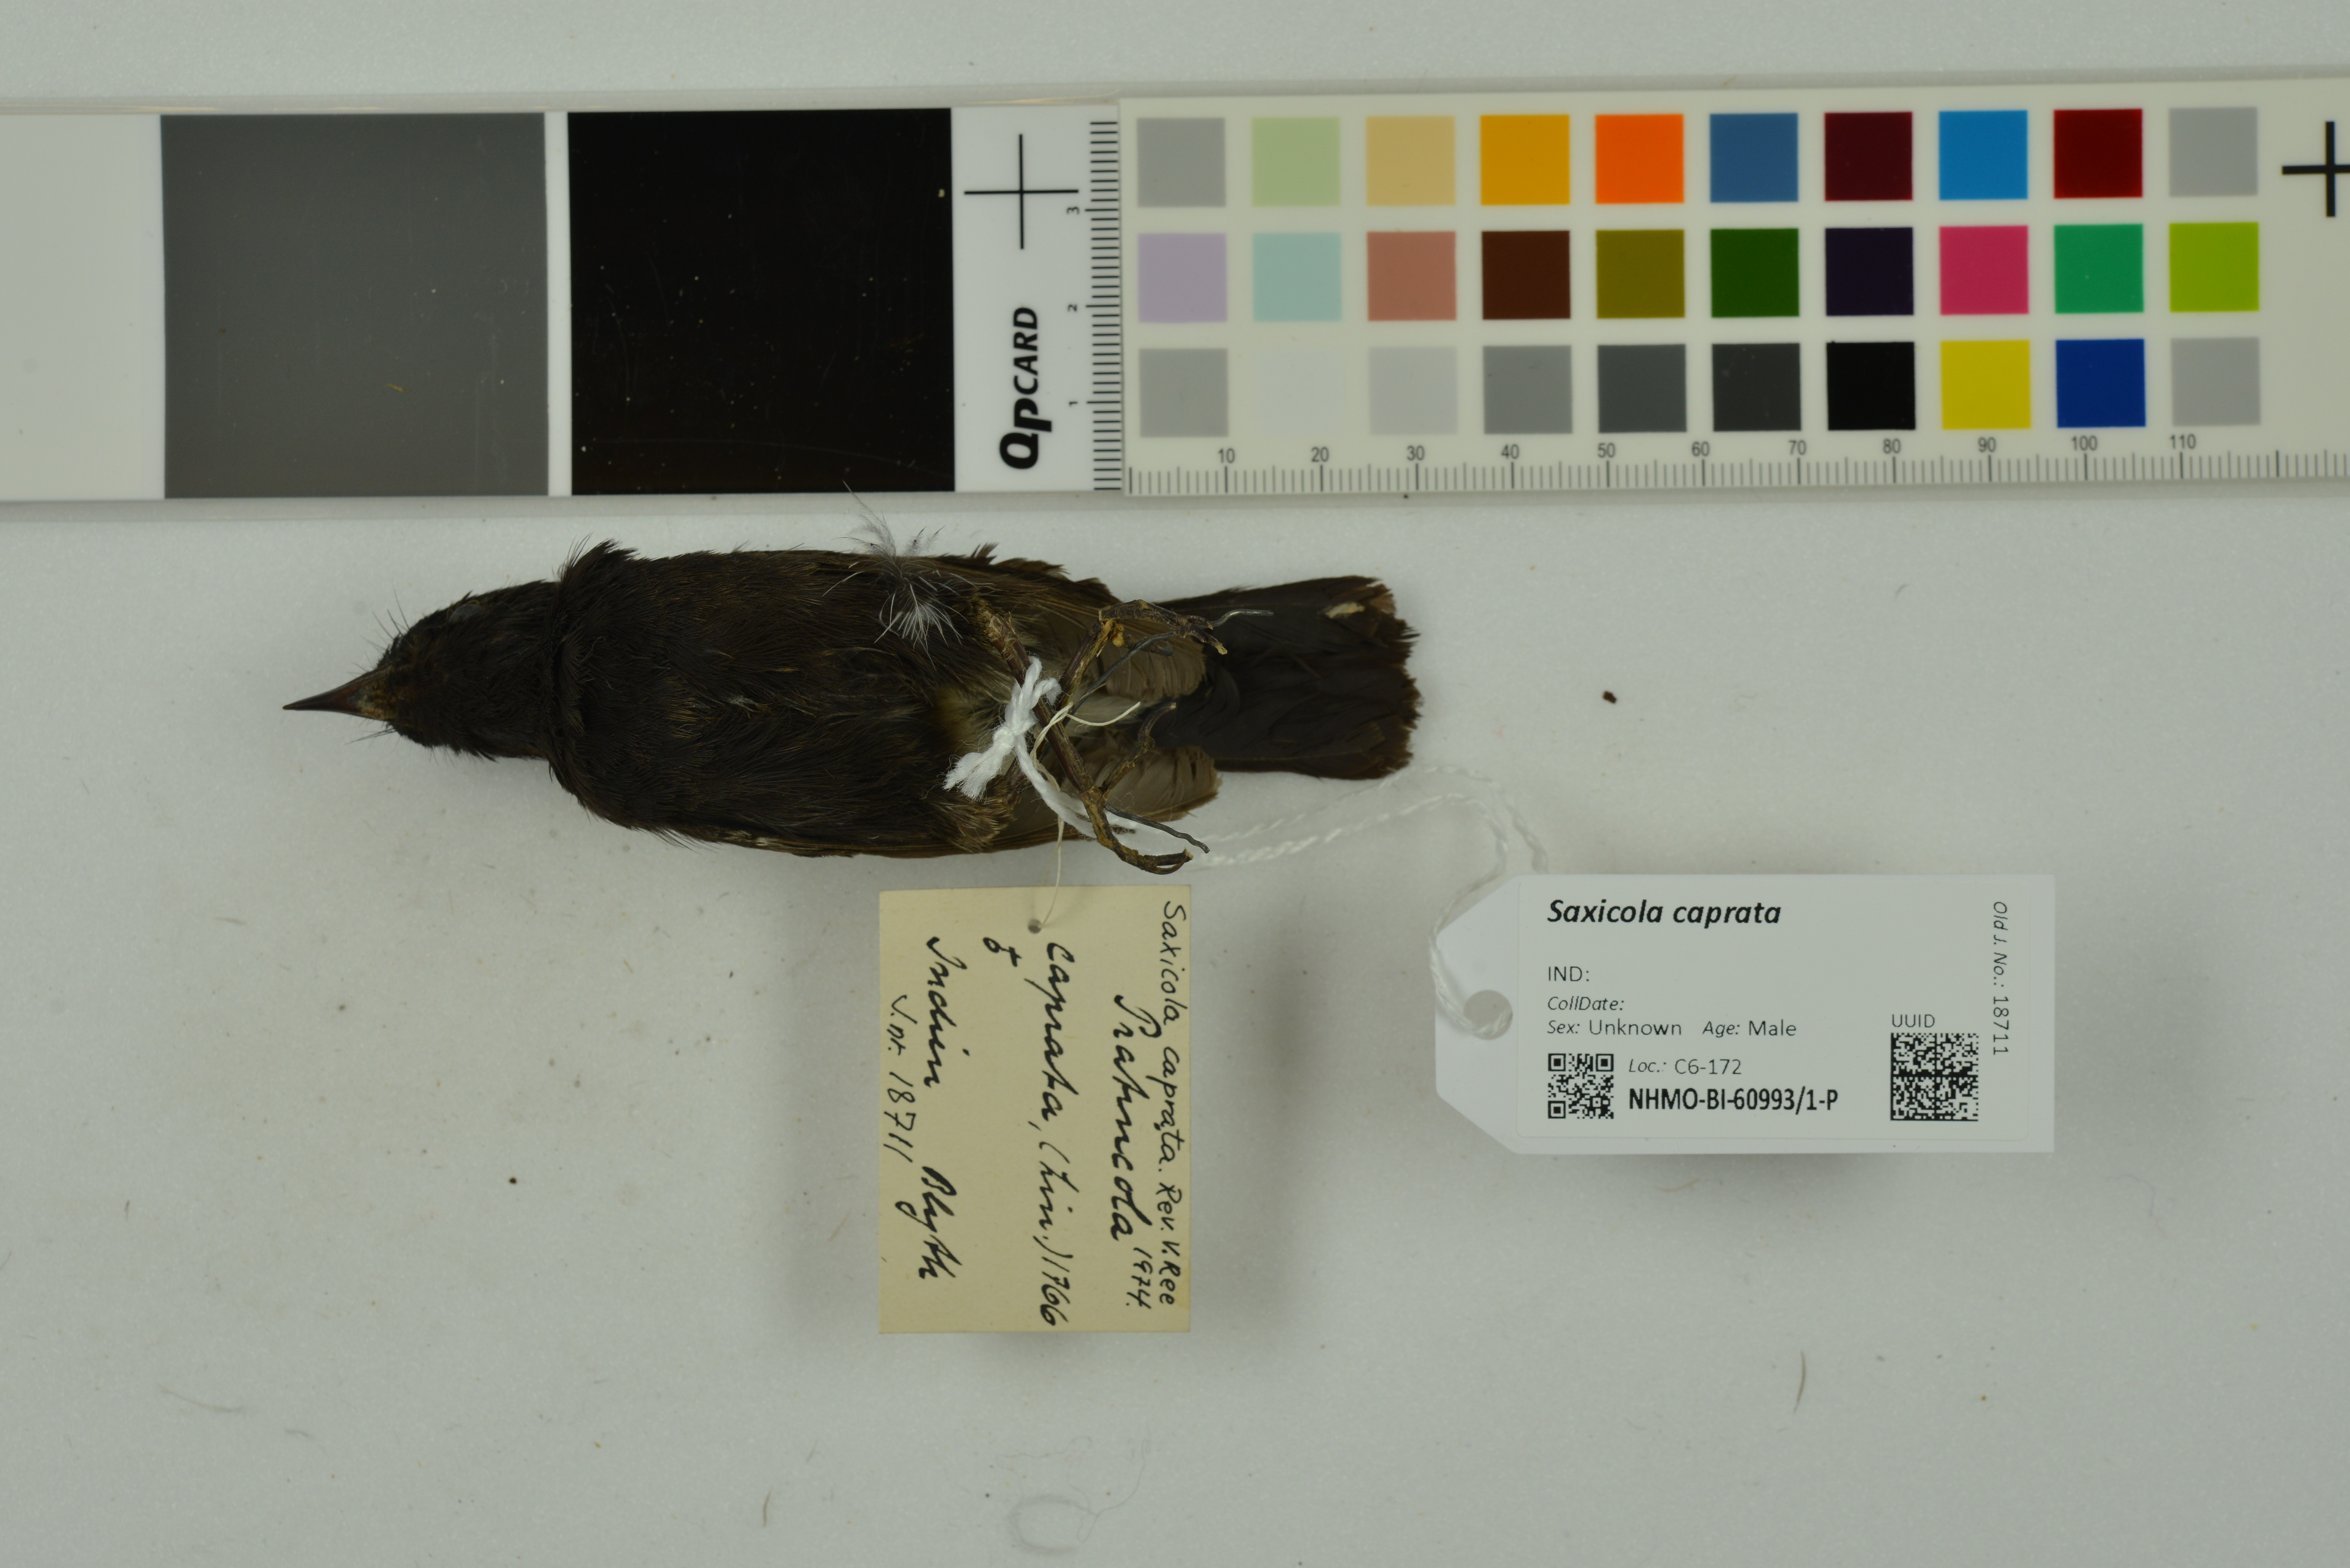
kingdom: Animalia
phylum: Chordata
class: Aves
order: Passeriformes
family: Muscicapidae
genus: Saxicola
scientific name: Saxicola caprata
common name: Pied bush chat
